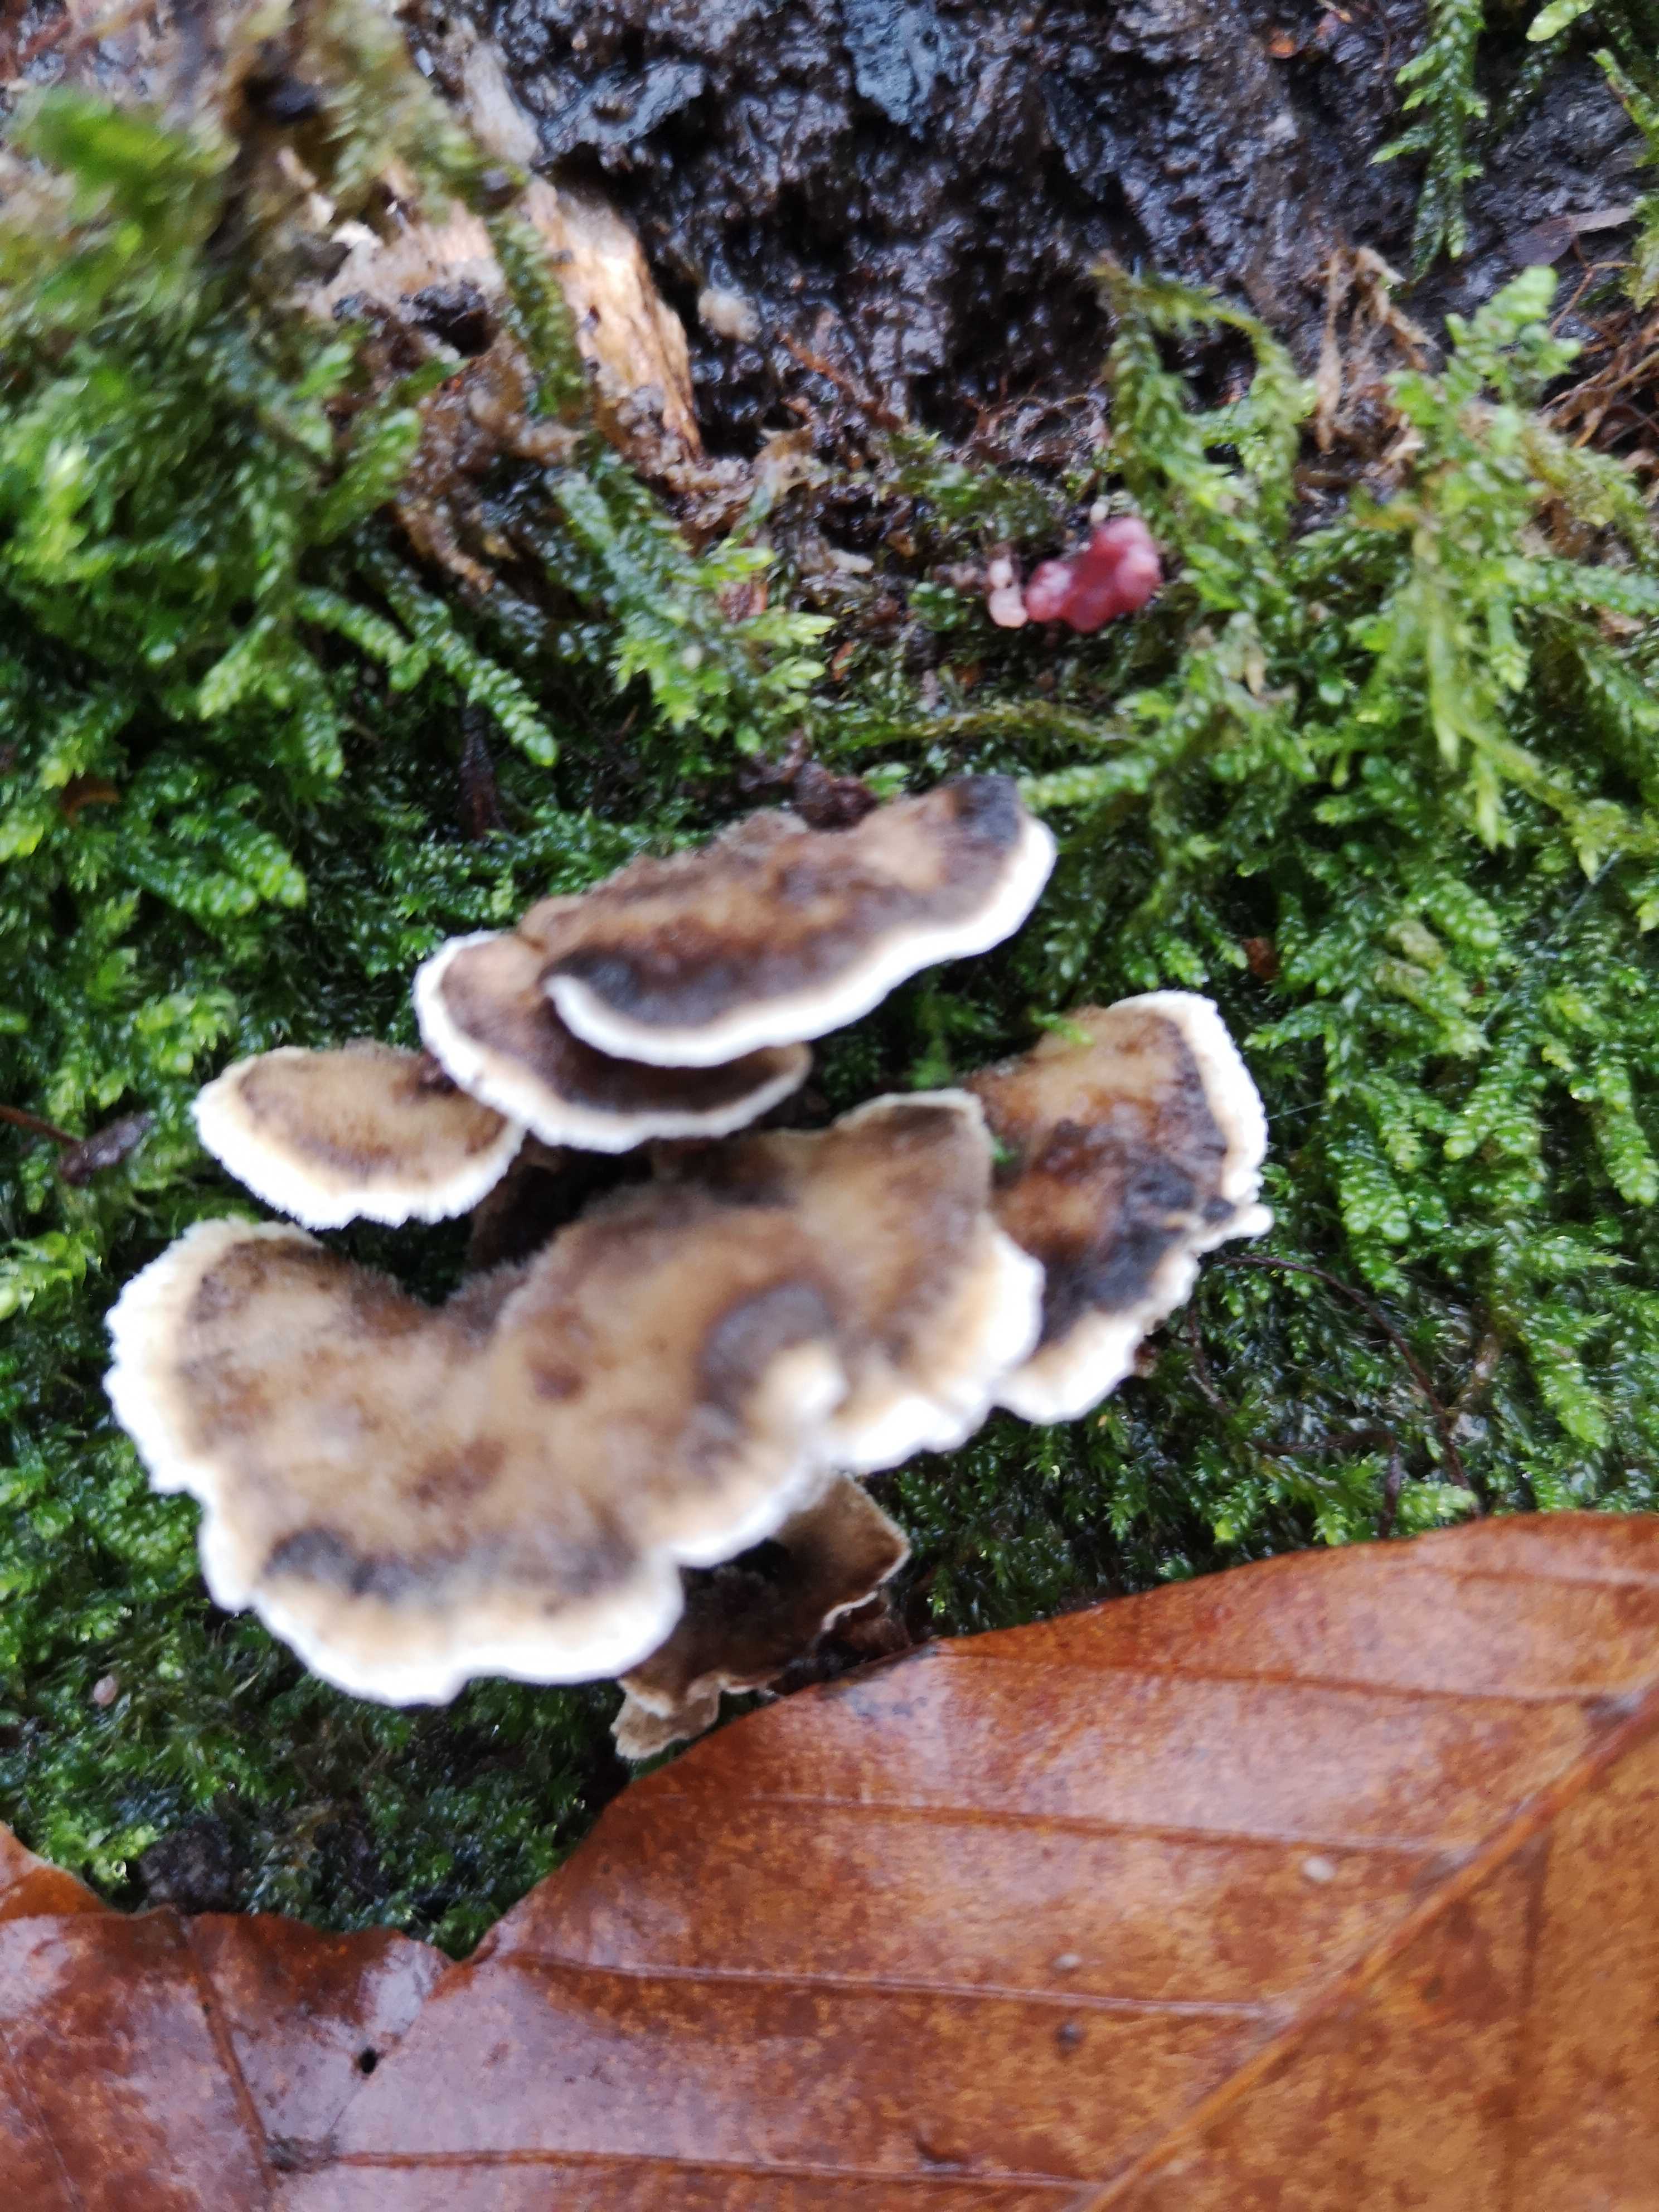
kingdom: Fungi
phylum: Basidiomycota
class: Agaricomycetes
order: Polyporales
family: Phanerochaetaceae
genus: Bjerkandera
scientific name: Bjerkandera adusta
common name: sveden sodporesvamp
